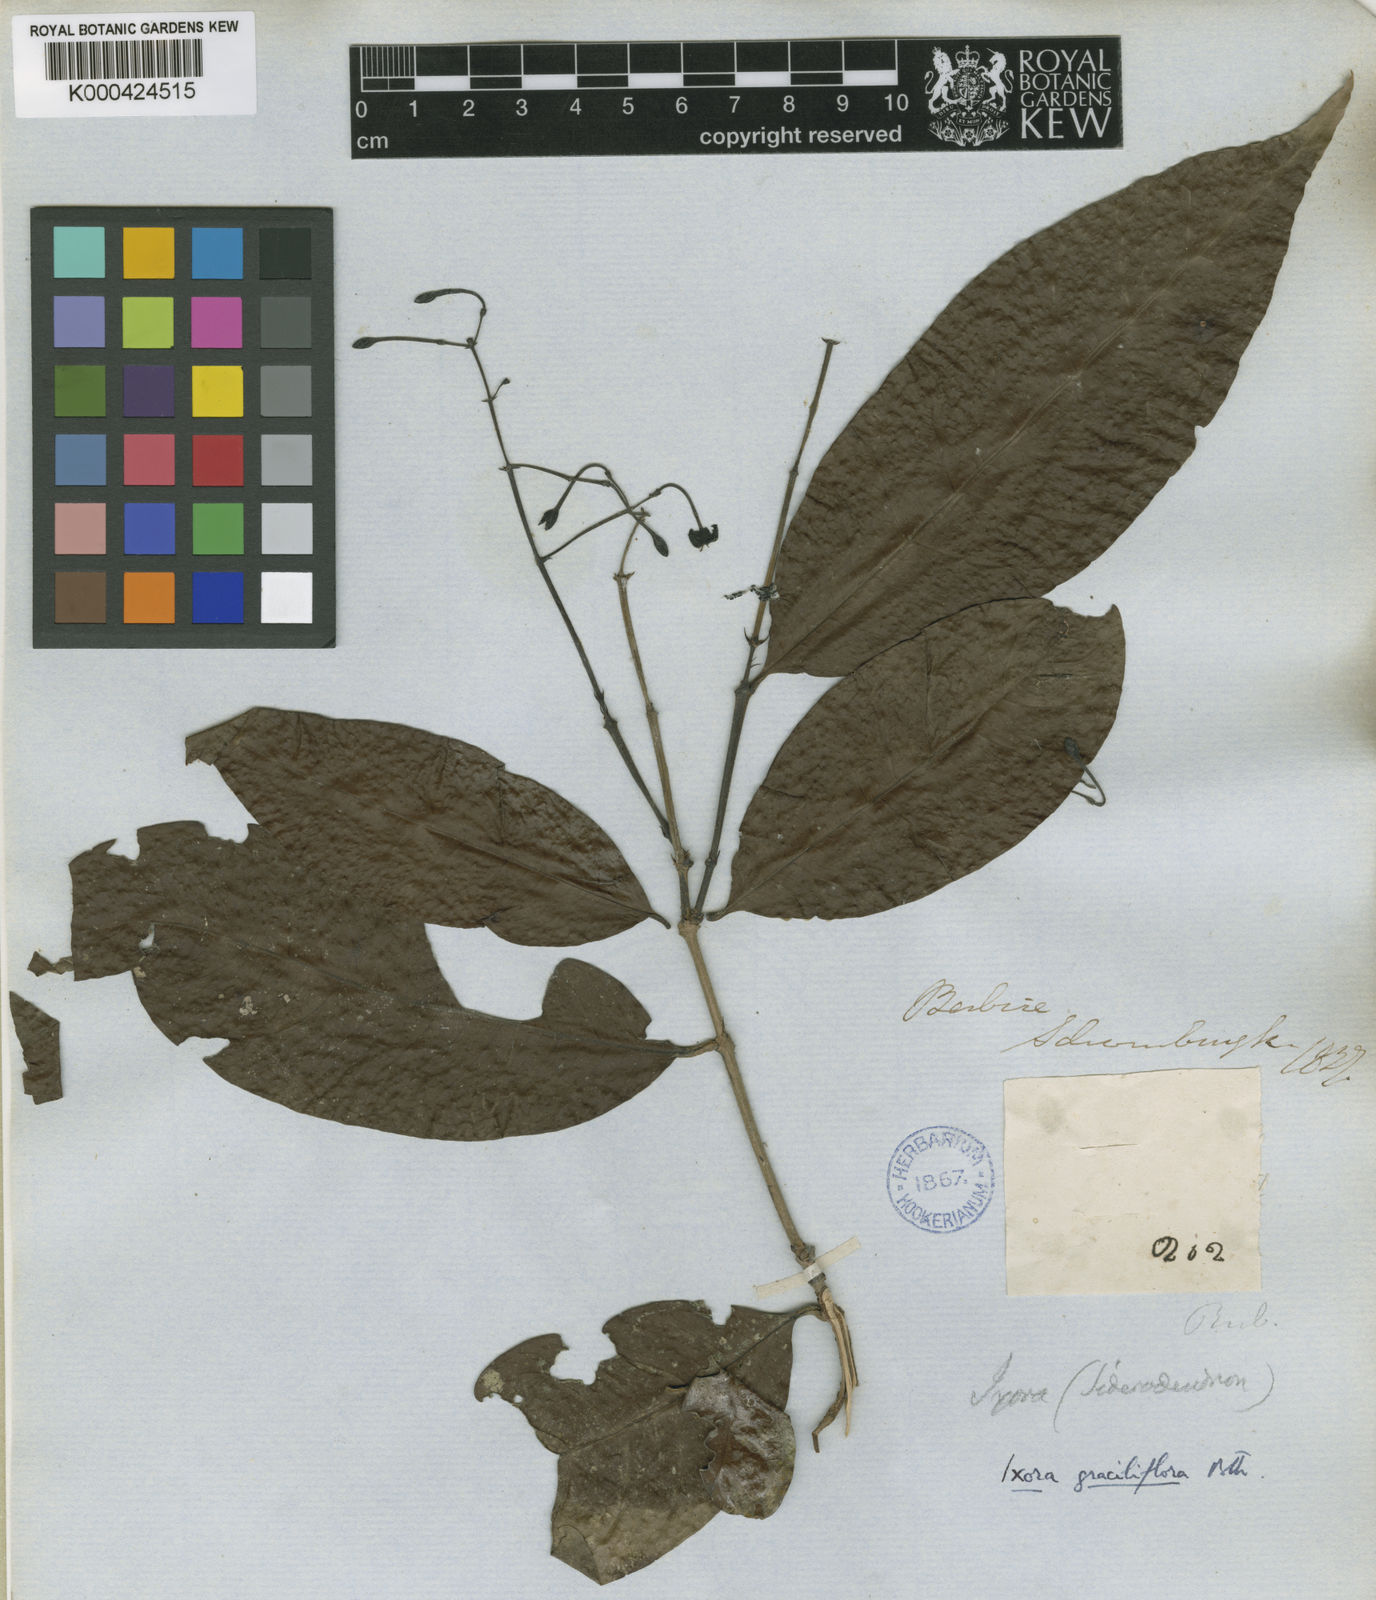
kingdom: Plantae
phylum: Tracheophyta
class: Magnoliopsida
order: Gentianales
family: Rubiaceae
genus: Ixora
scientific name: Ixora graciliflora
